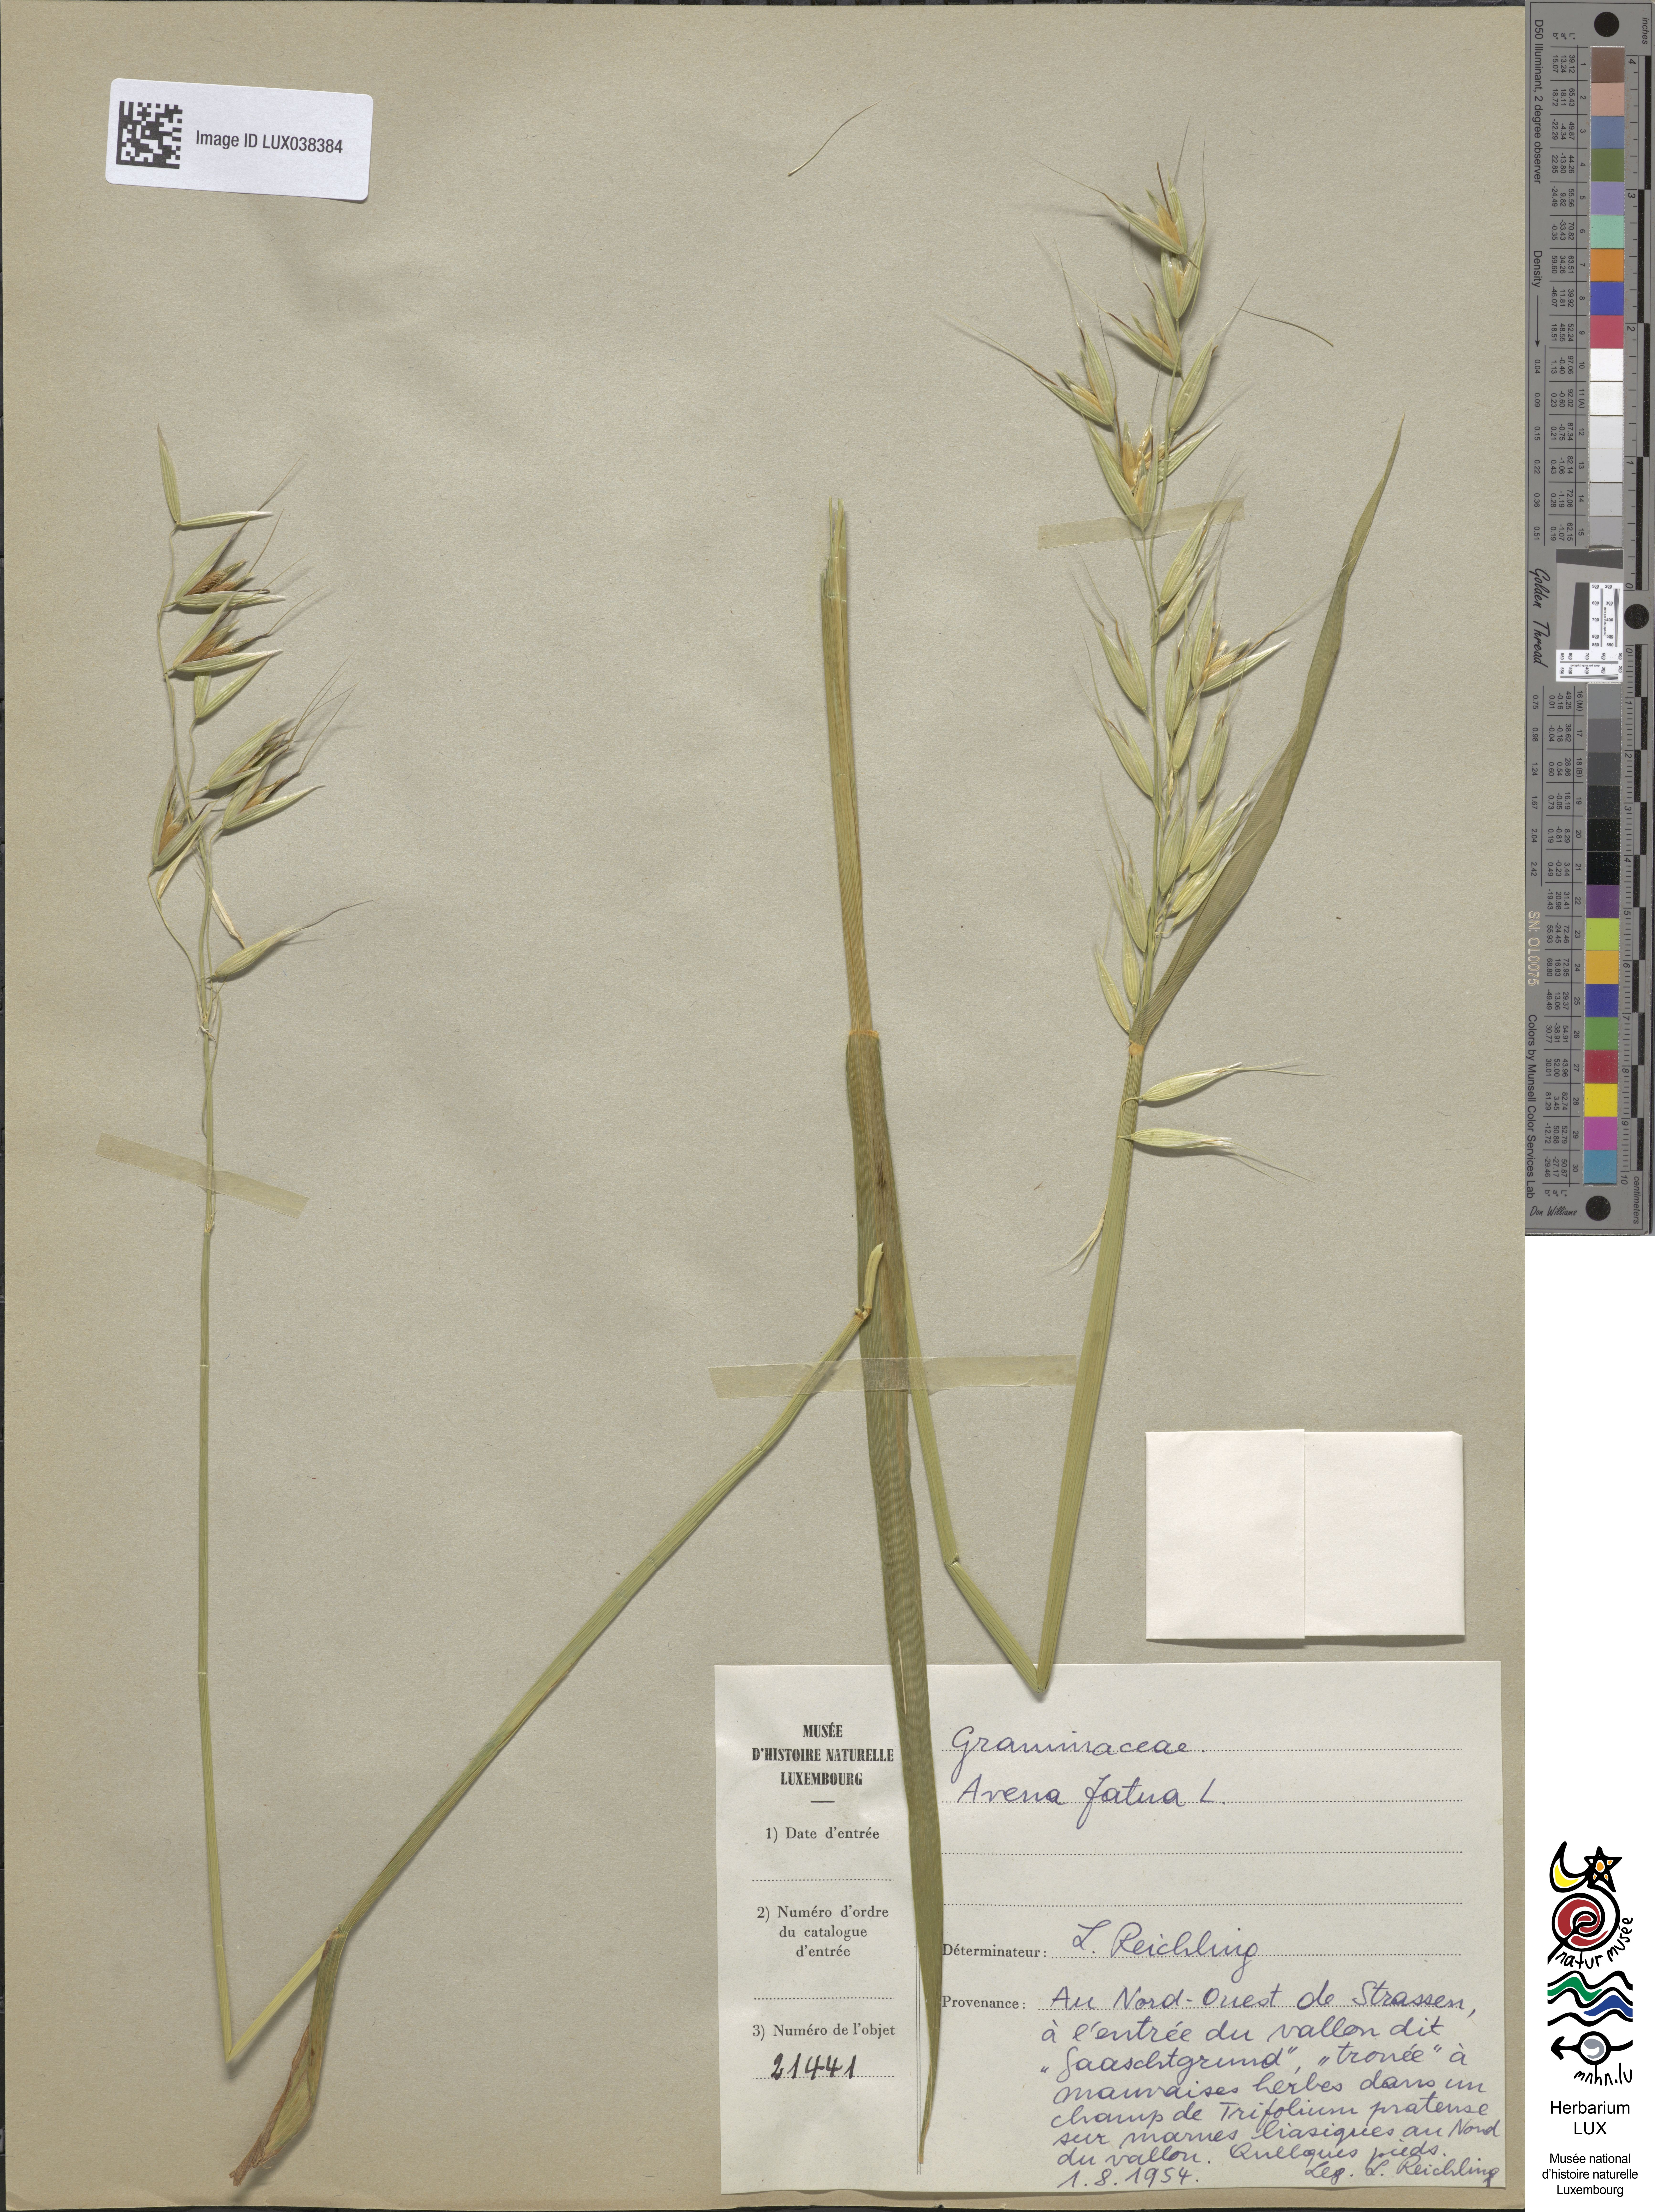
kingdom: Plantae
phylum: Tracheophyta
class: Liliopsida
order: Poales
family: Poaceae
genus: Avena
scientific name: Avena fatua
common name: Wild oat
